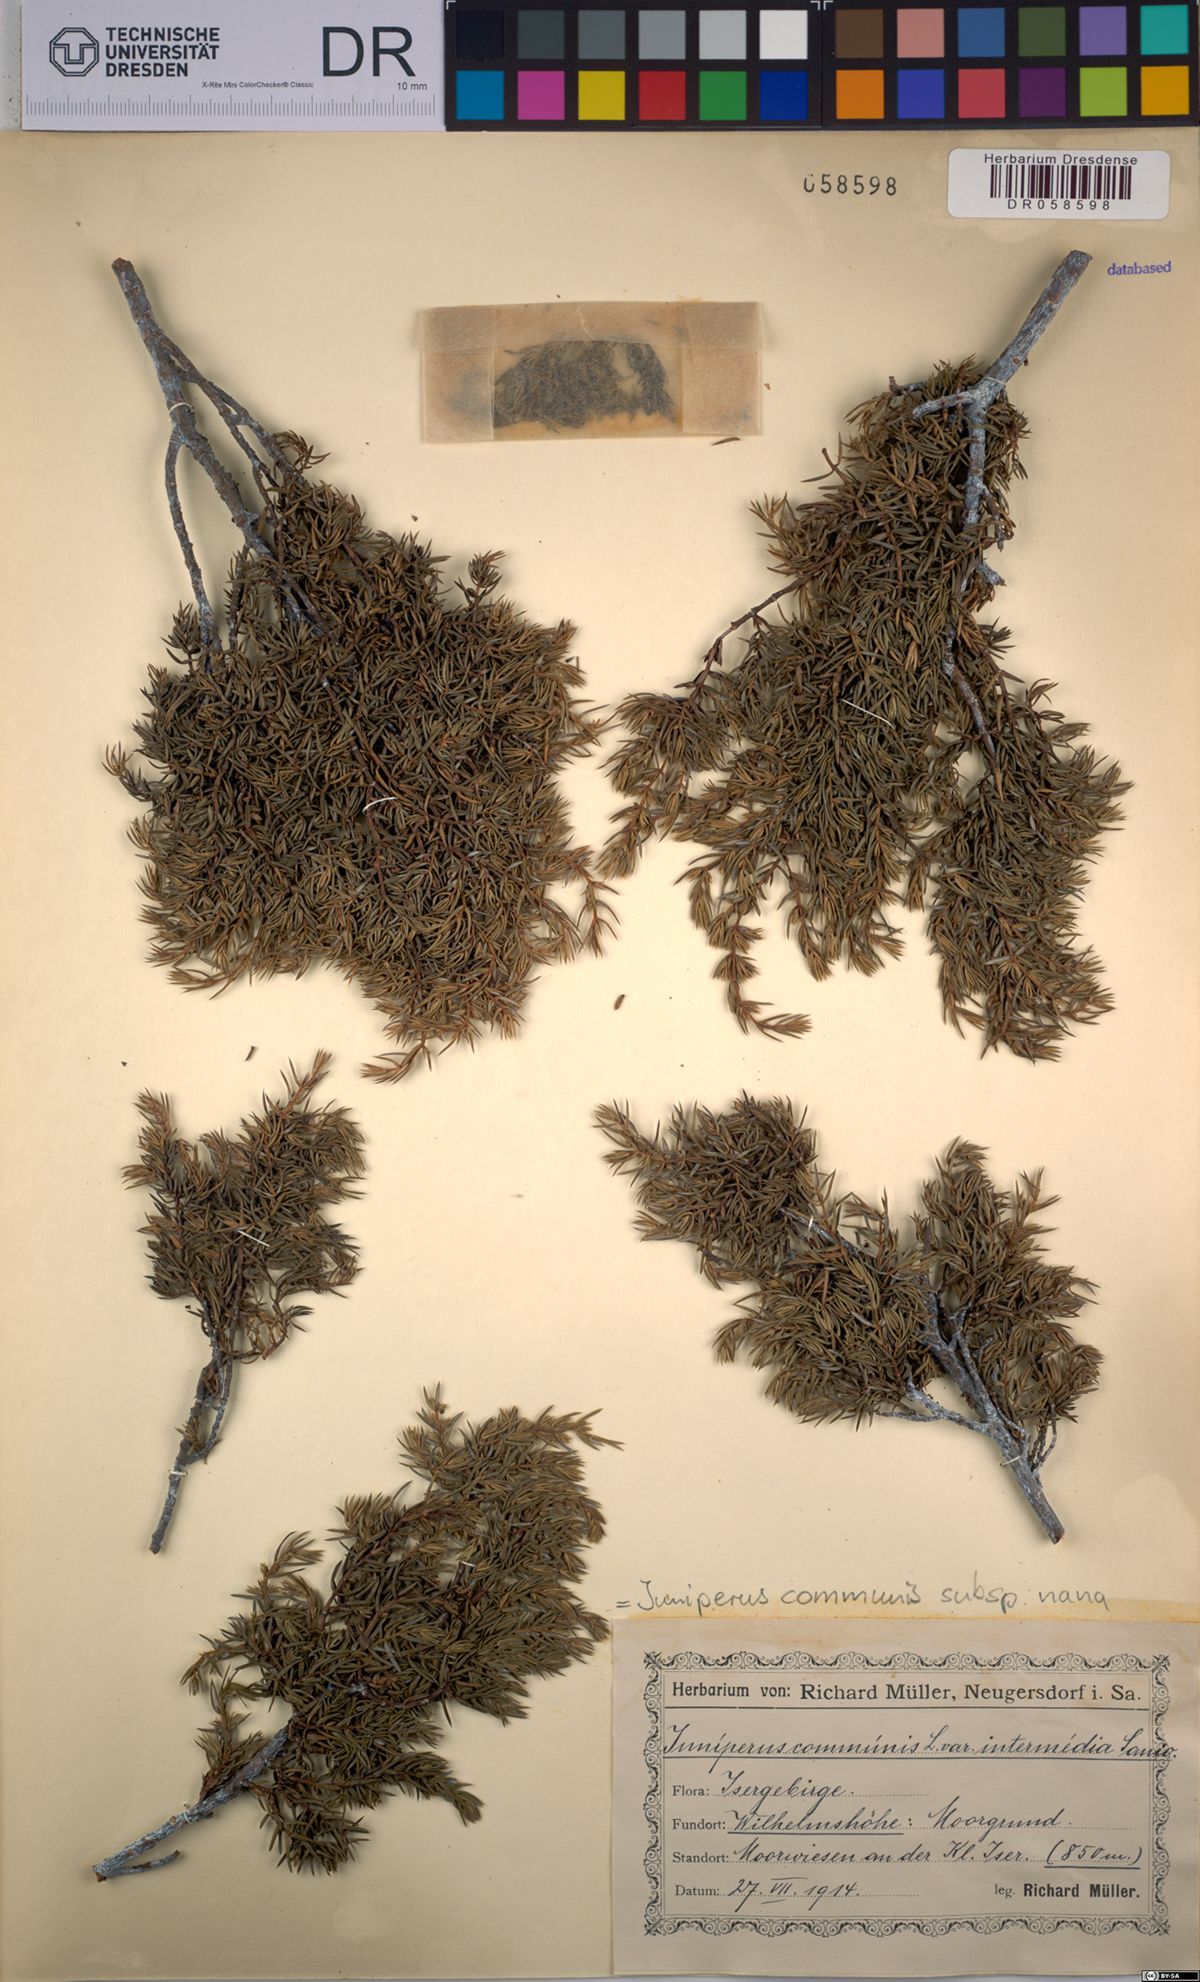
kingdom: Plantae
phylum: Tracheophyta
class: Pinopsida
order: Pinales
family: Cupressaceae
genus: Juniperus
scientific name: Juniperus communis
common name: Common juniper
